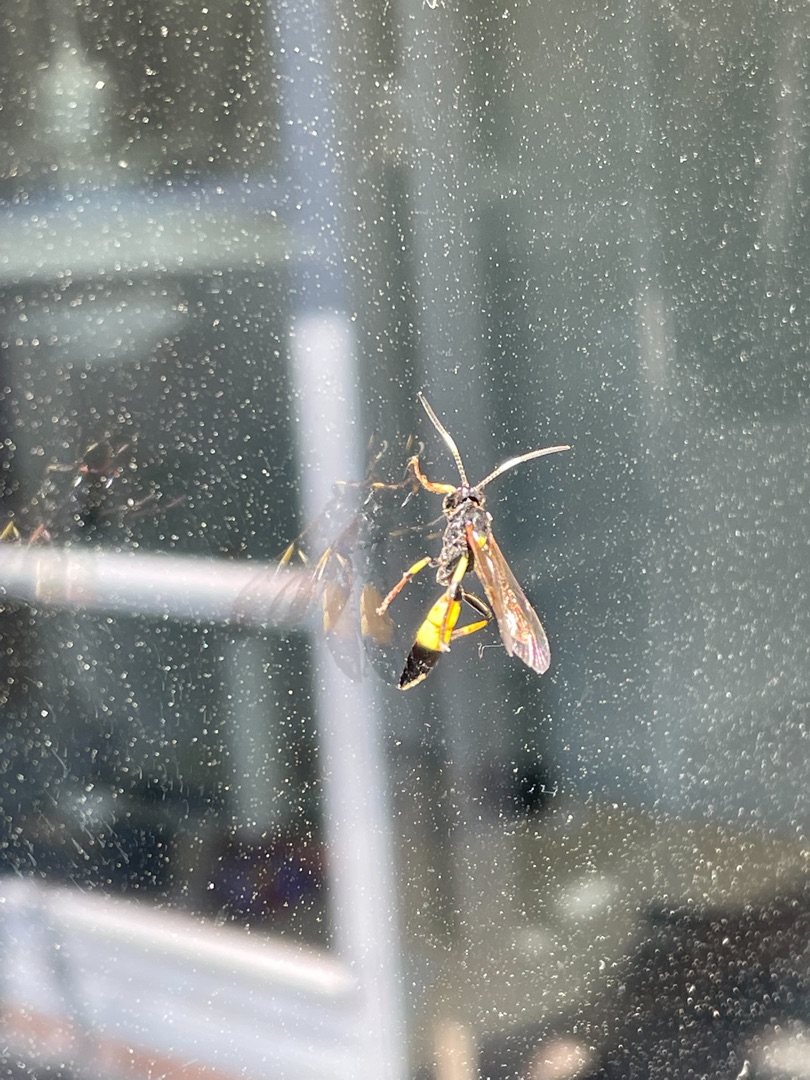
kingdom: Animalia
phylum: Arthropoda
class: Insecta
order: Hymenoptera
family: Ichneumonidae
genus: Ichneumon
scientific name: Ichneumon stramentor
